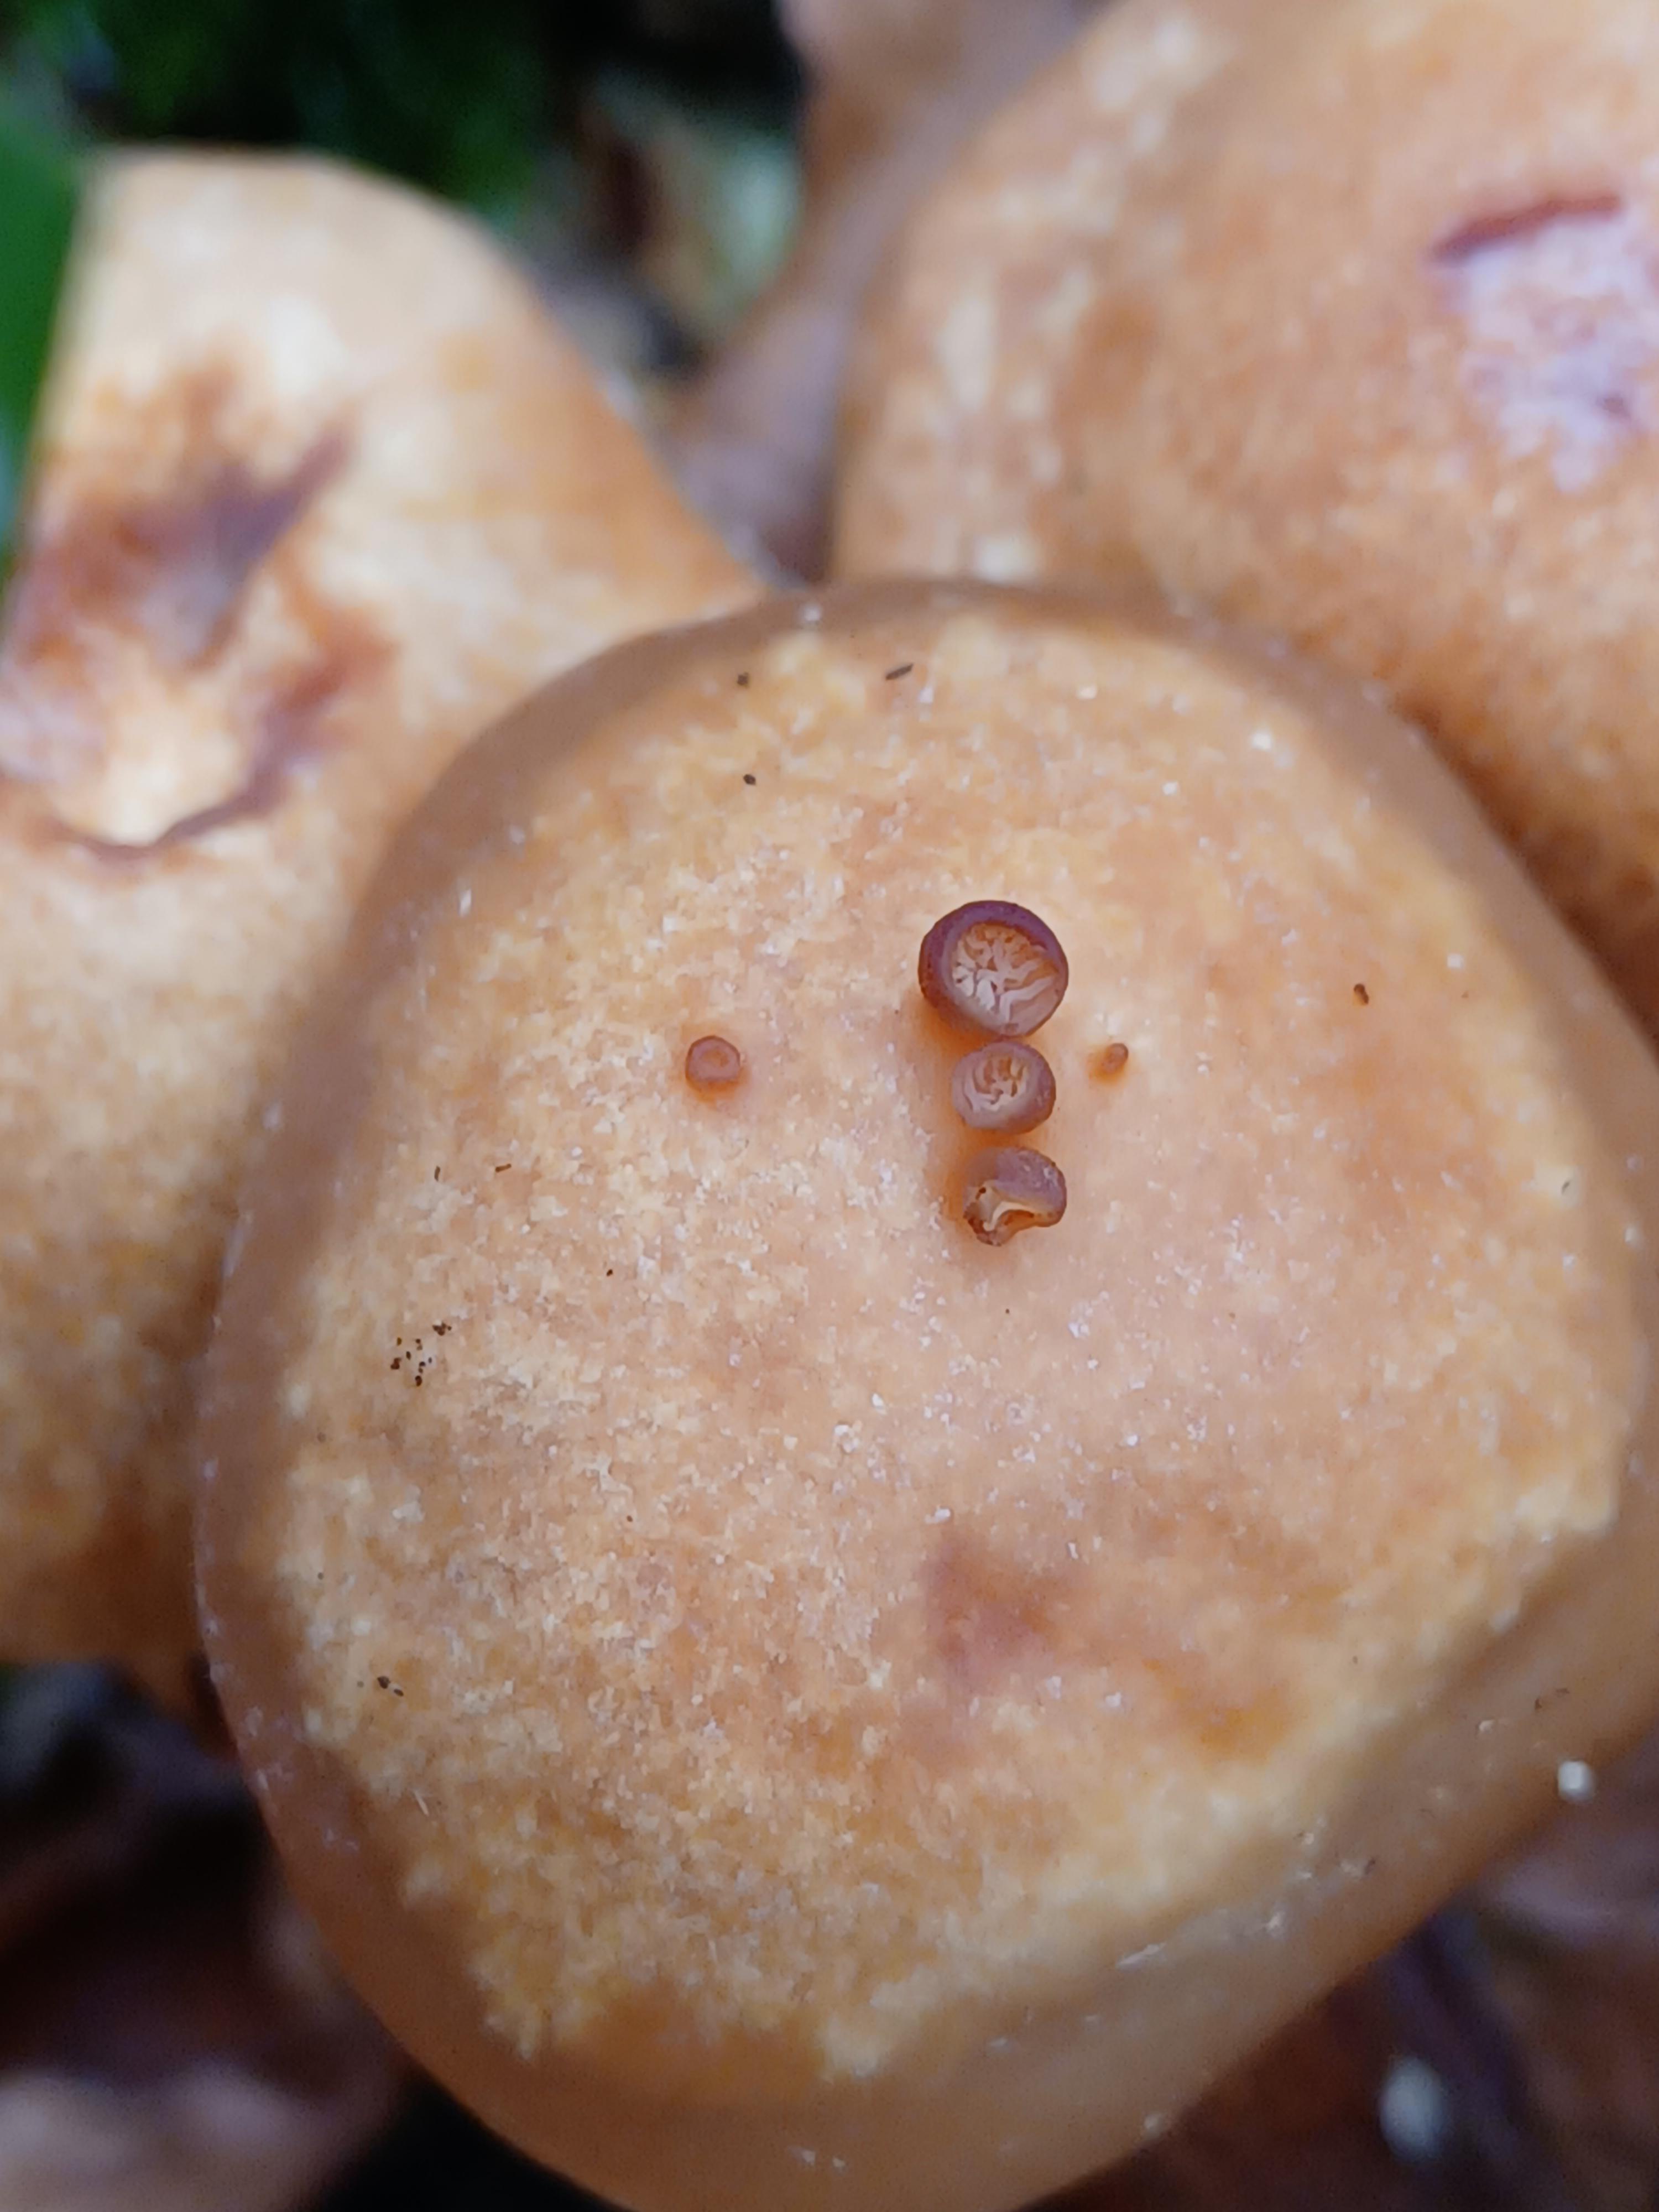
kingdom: Fungi
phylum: Basidiomycota
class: Agaricomycetes
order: Agaricales
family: Physalacriaceae
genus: Armillaria
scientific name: Armillaria mellea
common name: ægte honningsvamp
